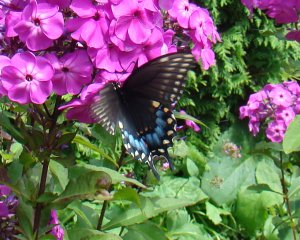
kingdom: Animalia
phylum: Arthropoda
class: Insecta
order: Lepidoptera
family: Papilionidae
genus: Papilio
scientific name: Papilio polyxenes
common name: Black Swallowtail
